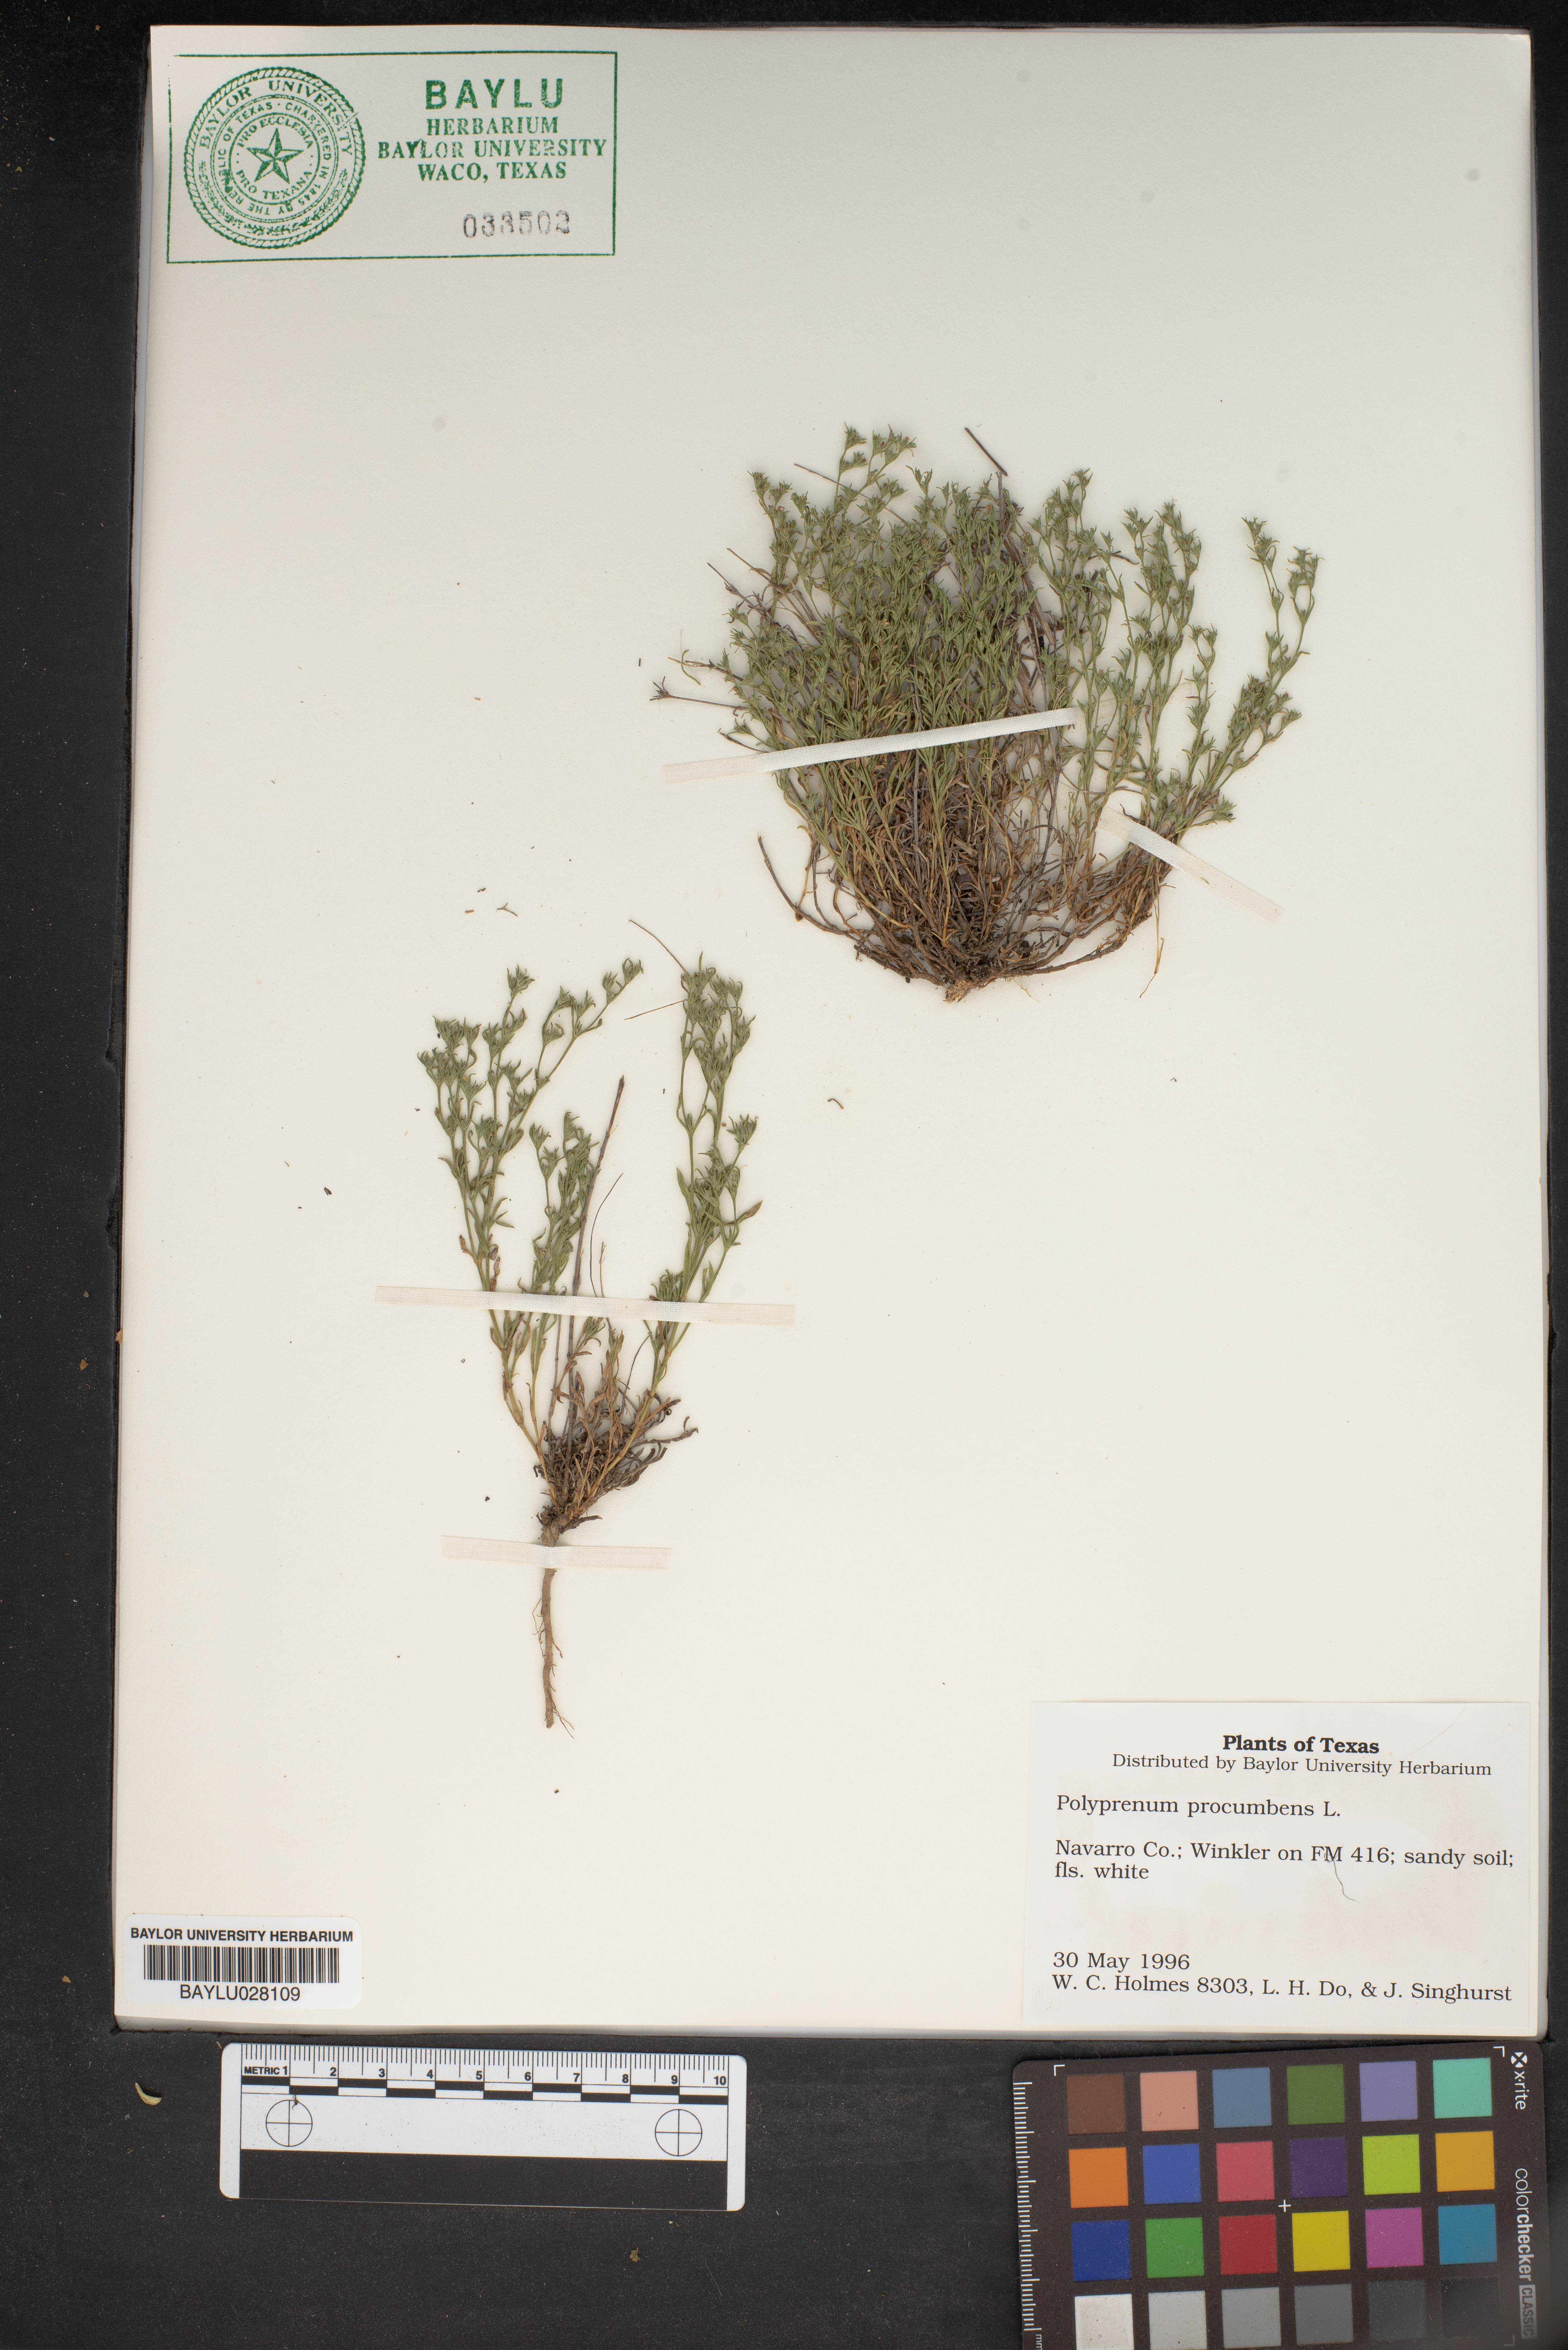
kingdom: Plantae
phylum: Tracheophyta
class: Magnoliopsida
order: Lamiales
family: Tetrachondraceae
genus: Polypremum
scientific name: Polypremum procumbens
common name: Juniper-leaf
